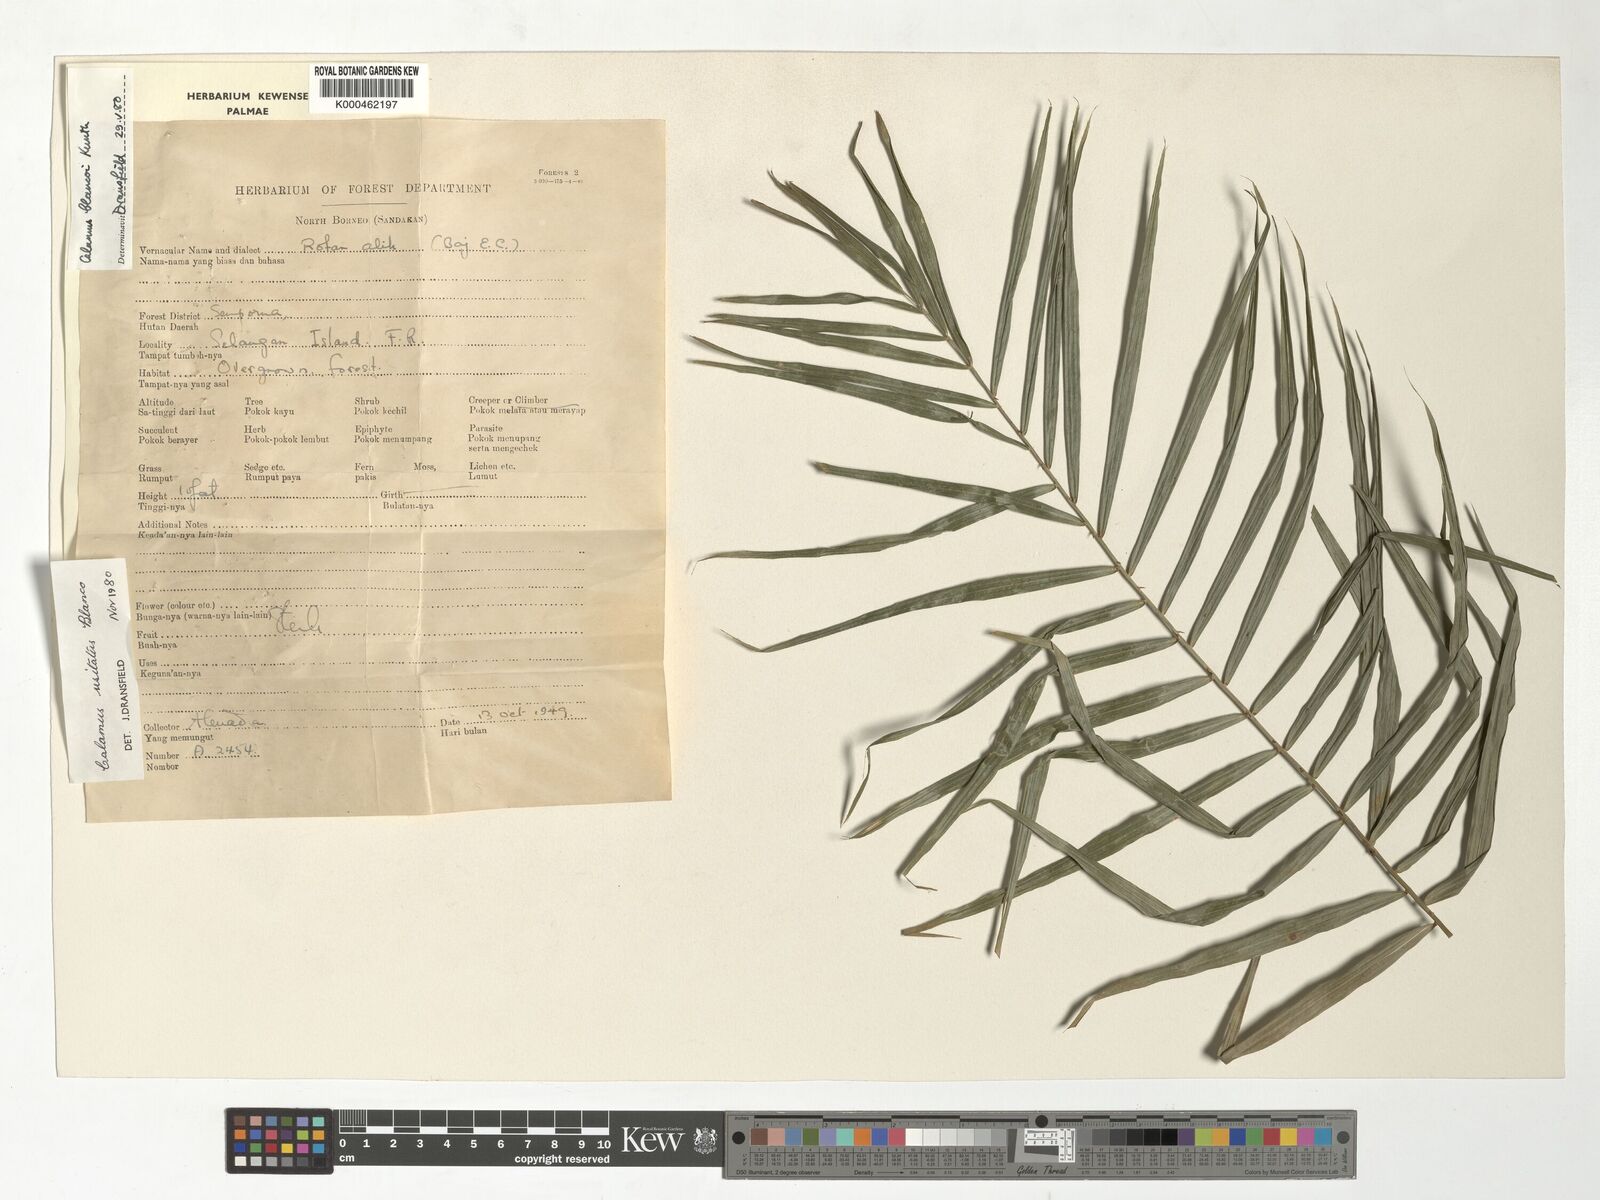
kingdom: Plantae
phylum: Tracheophyta
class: Liliopsida
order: Arecales
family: Arecaceae
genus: Calamus
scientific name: Calamus usitatus
